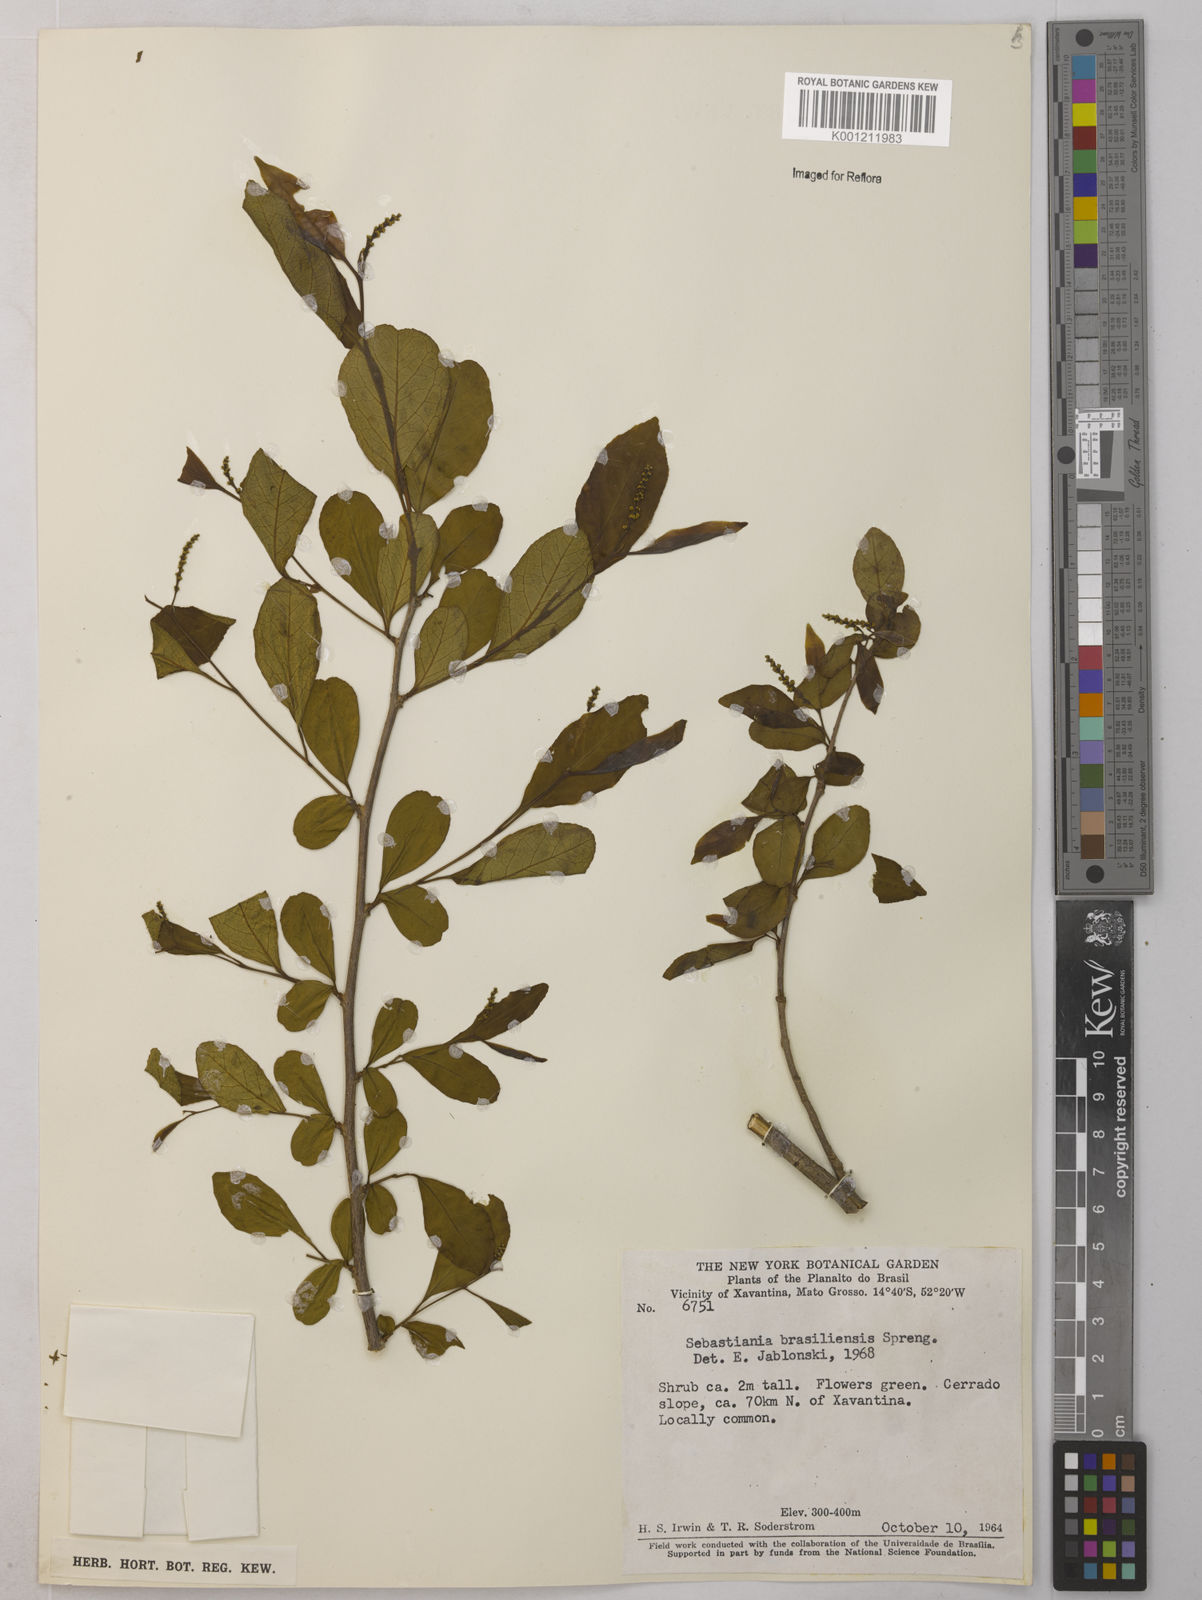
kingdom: Plantae
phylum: Tracheophyta
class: Magnoliopsida
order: Malpighiales
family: Euphorbiaceae
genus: Sebastiania
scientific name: Sebastiania brasiliensis
